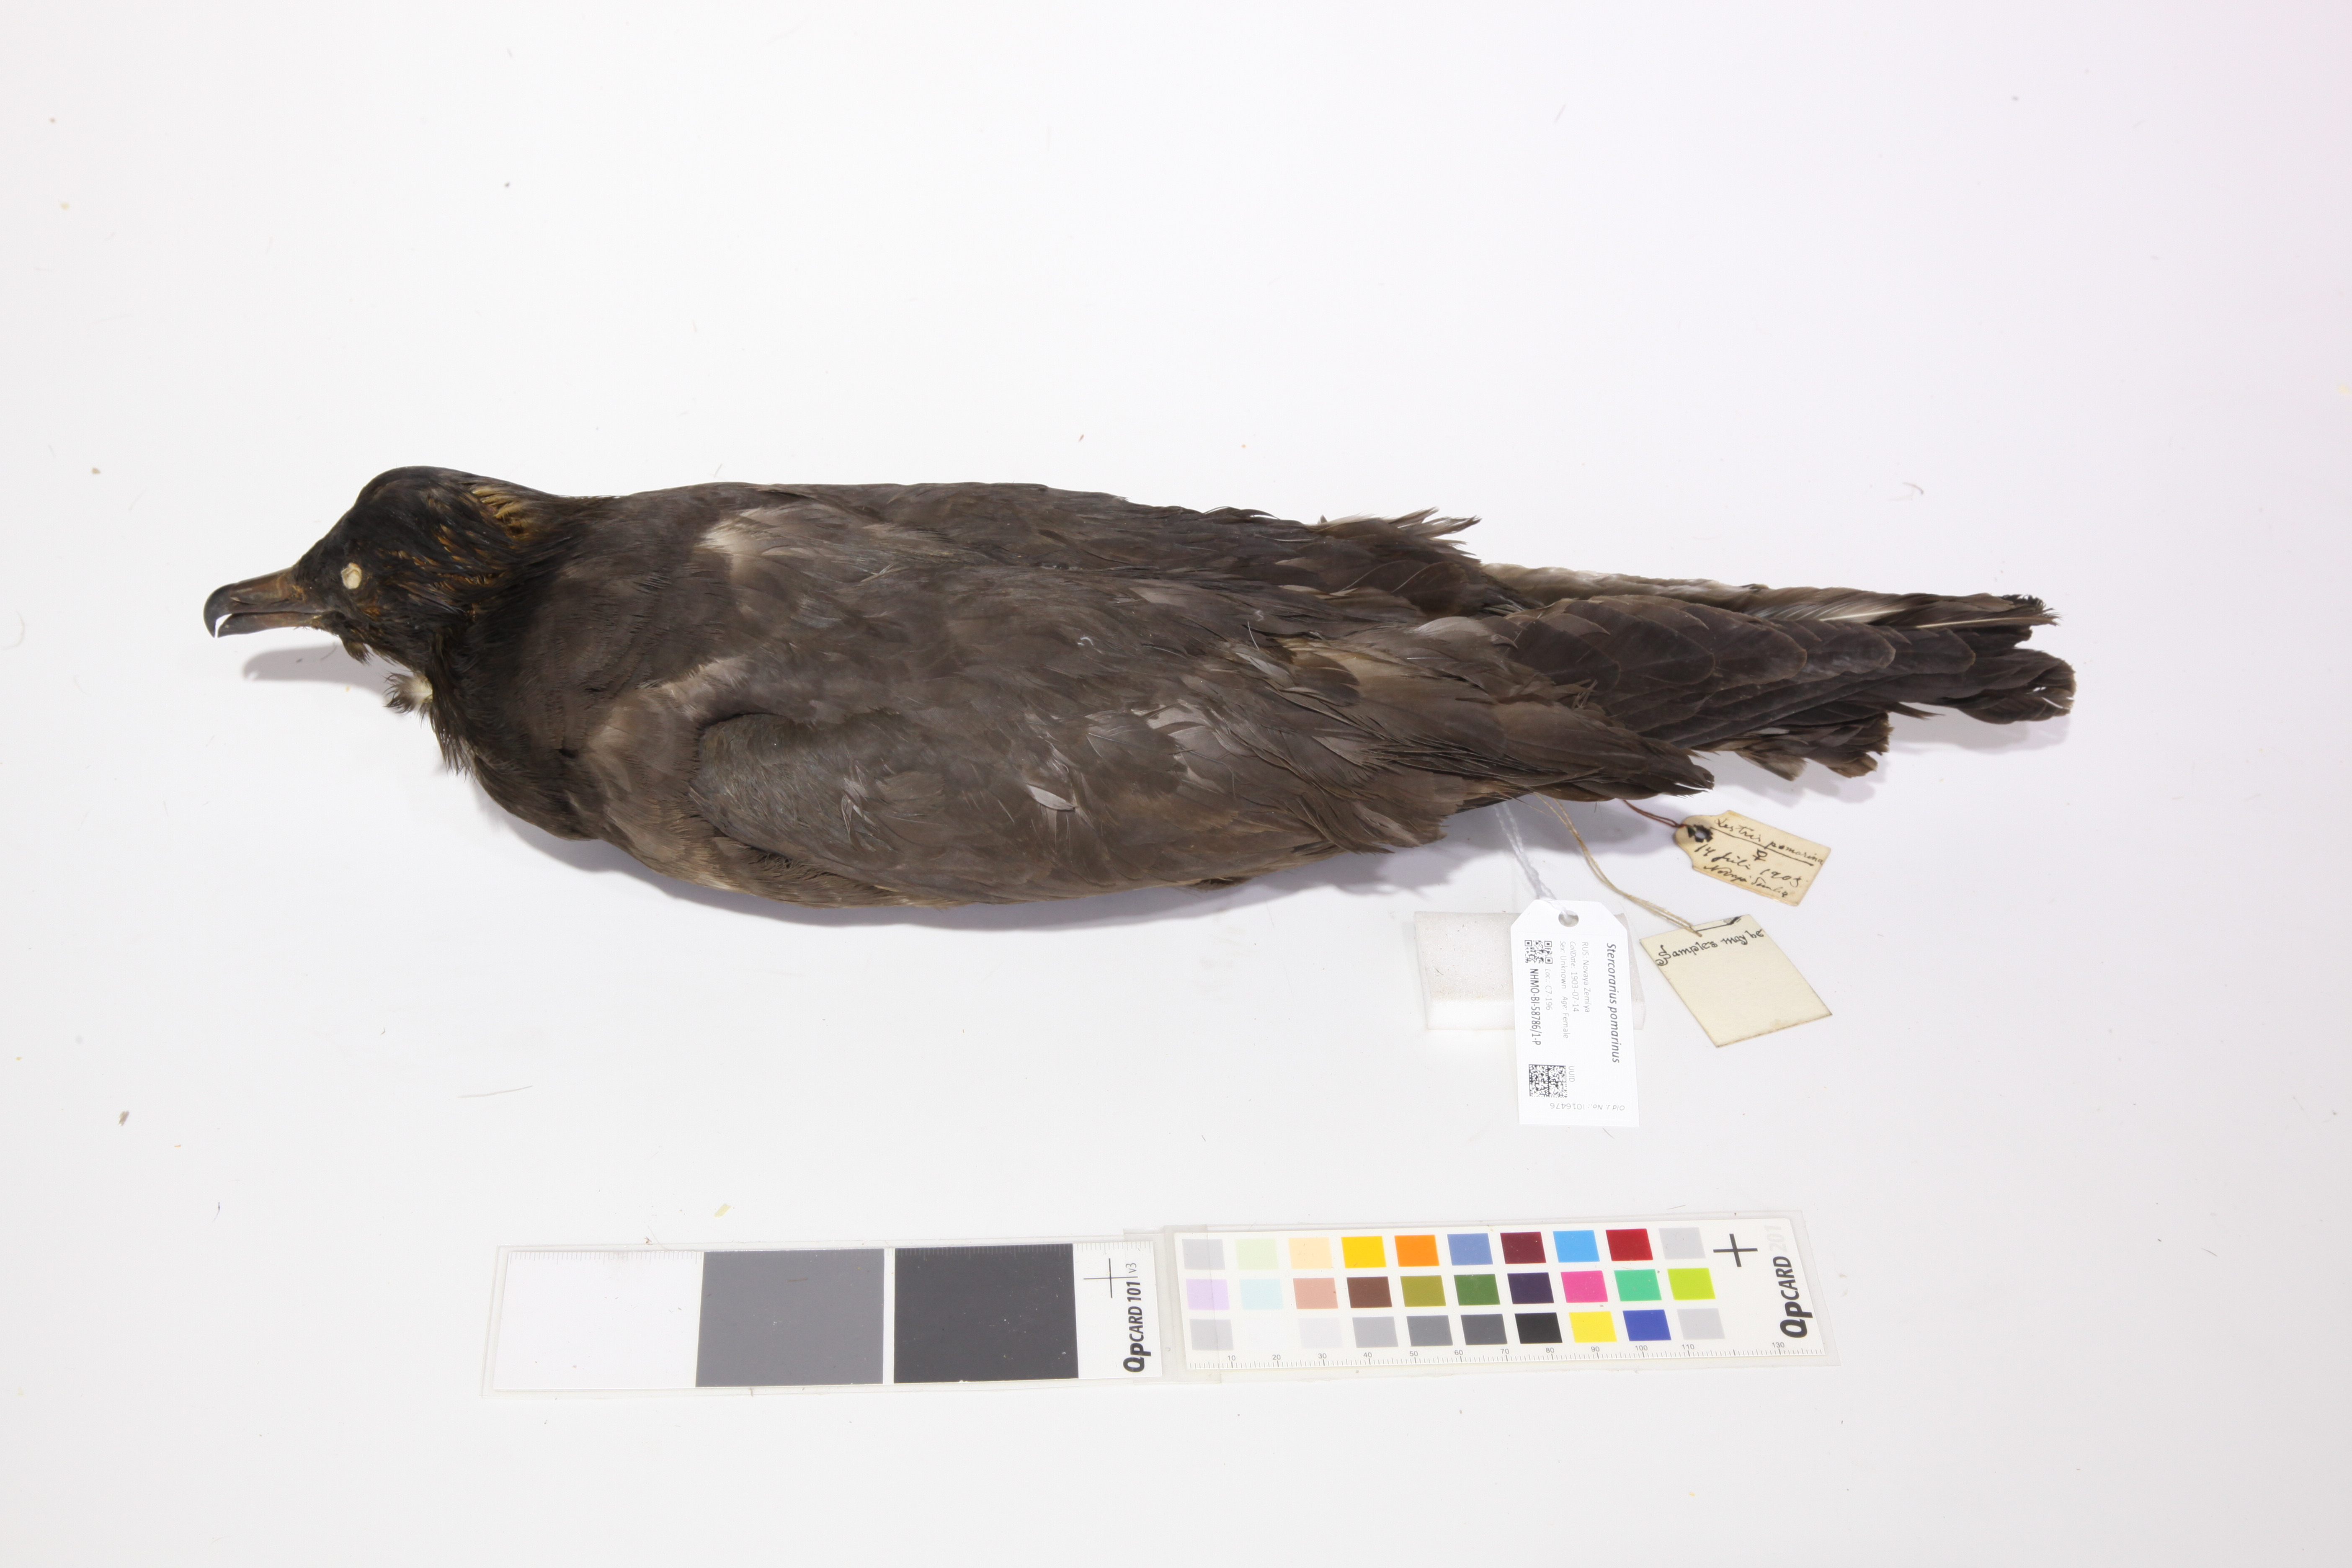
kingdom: Animalia
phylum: Chordata
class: Aves
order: Charadriiformes
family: Stercorariidae
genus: Stercorarius
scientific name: Stercorarius pomarinus
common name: Pomarine jaeger
